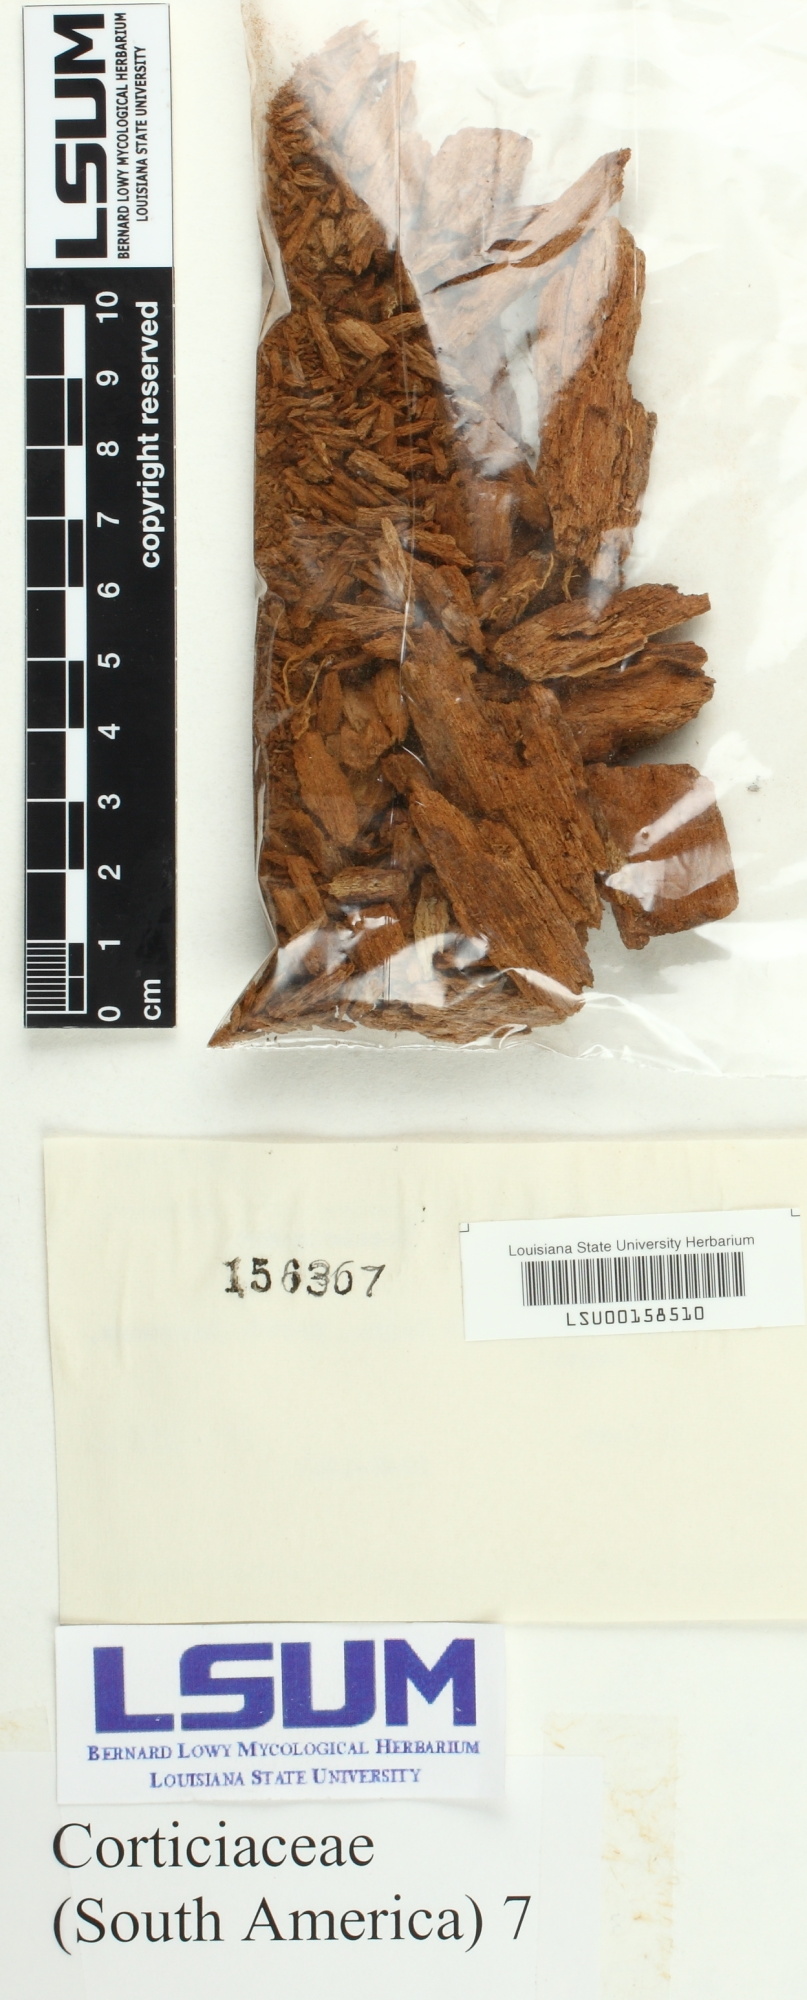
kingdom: Fungi
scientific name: Fungi
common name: Fungi
